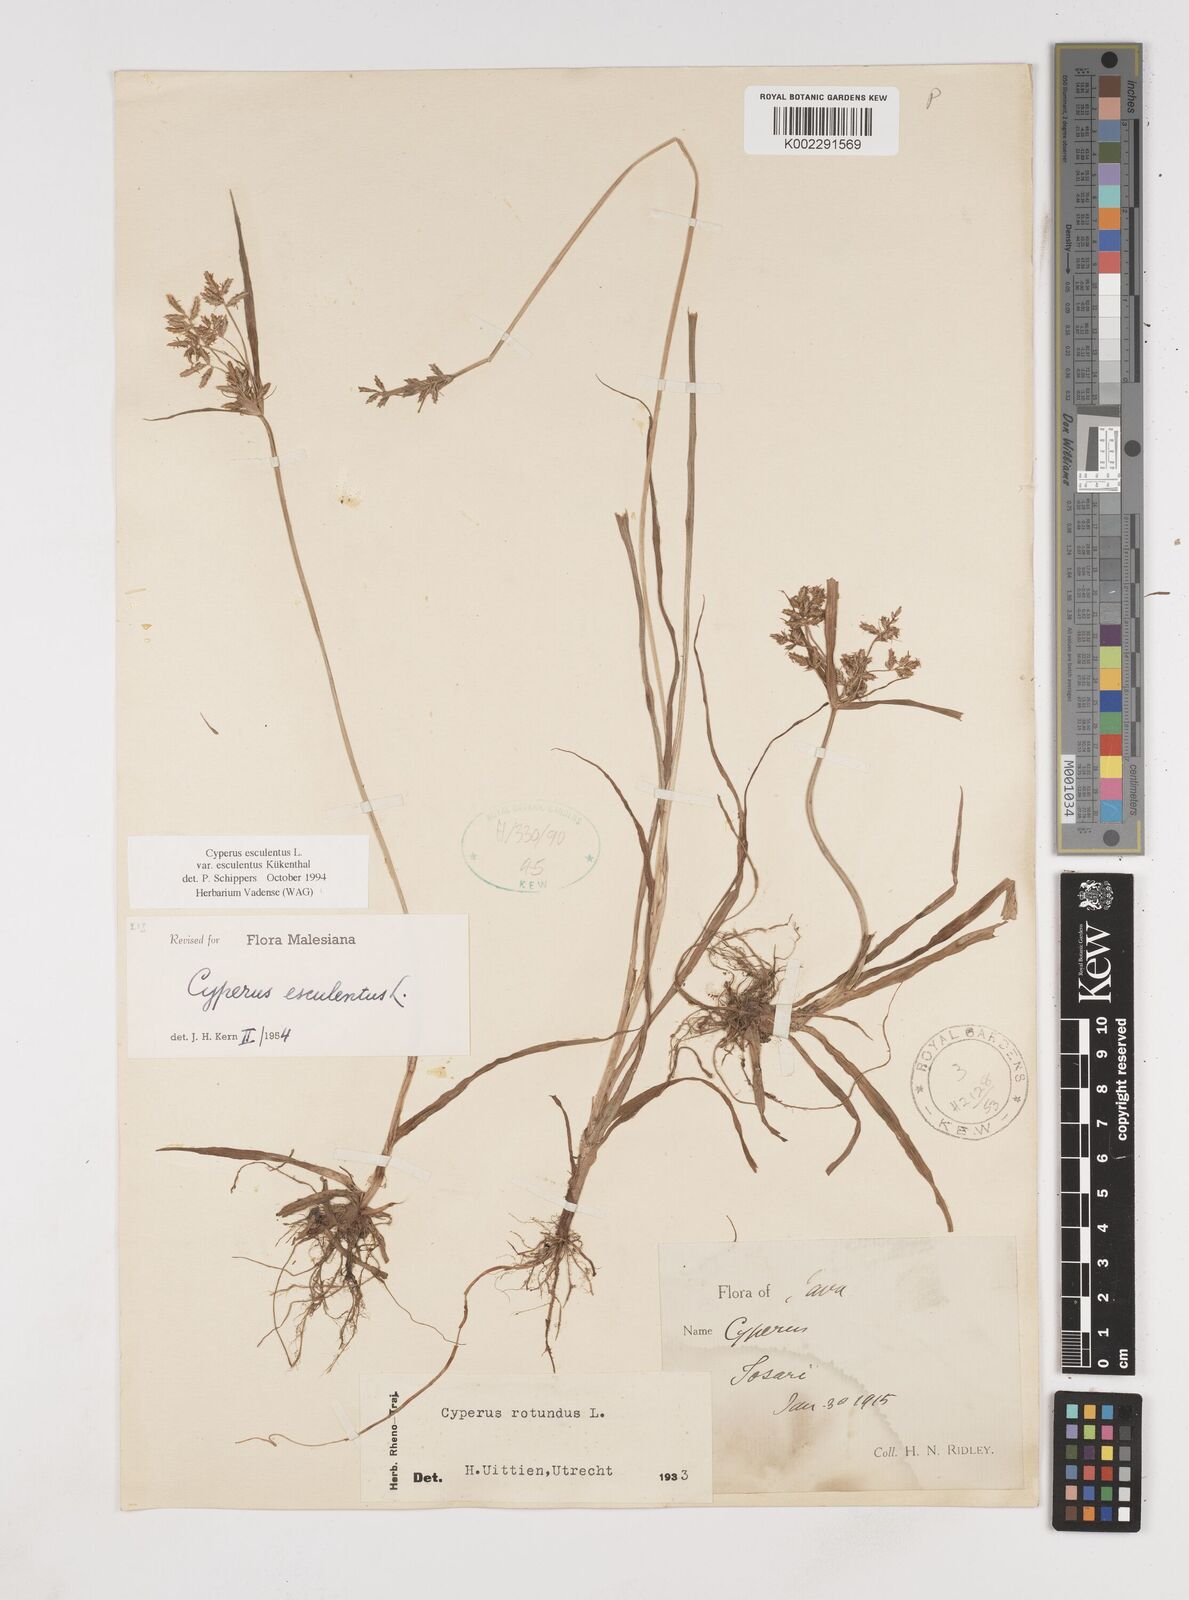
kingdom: Plantae
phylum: Tracheophyta
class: Liliopsida
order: Poales
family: Cyperaceae
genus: Cyperus
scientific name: Cyperus esculentus
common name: Yellow nutsedge
